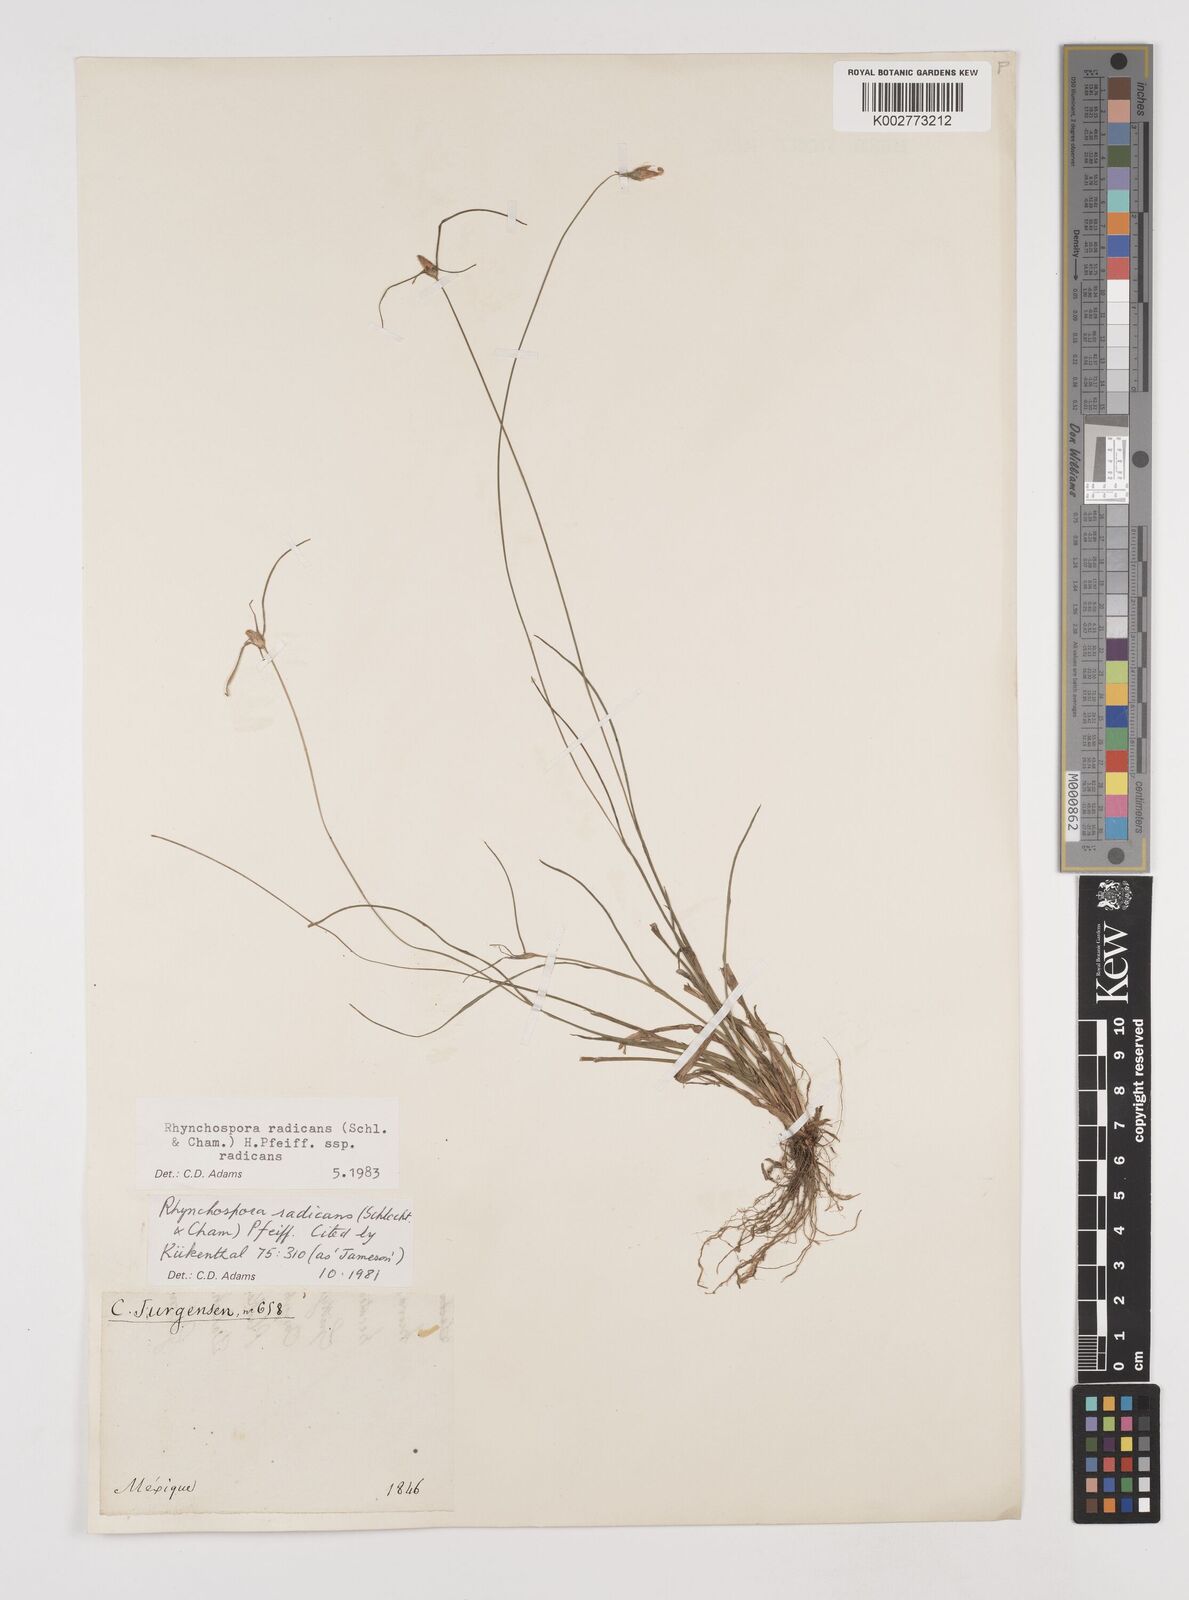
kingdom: Plantae
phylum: Tracheophyta
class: Liliopsida
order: Poales
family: Cyperaceae
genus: Rhynchospora
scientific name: Rhynchospora radicans
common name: Tropical whitetop
